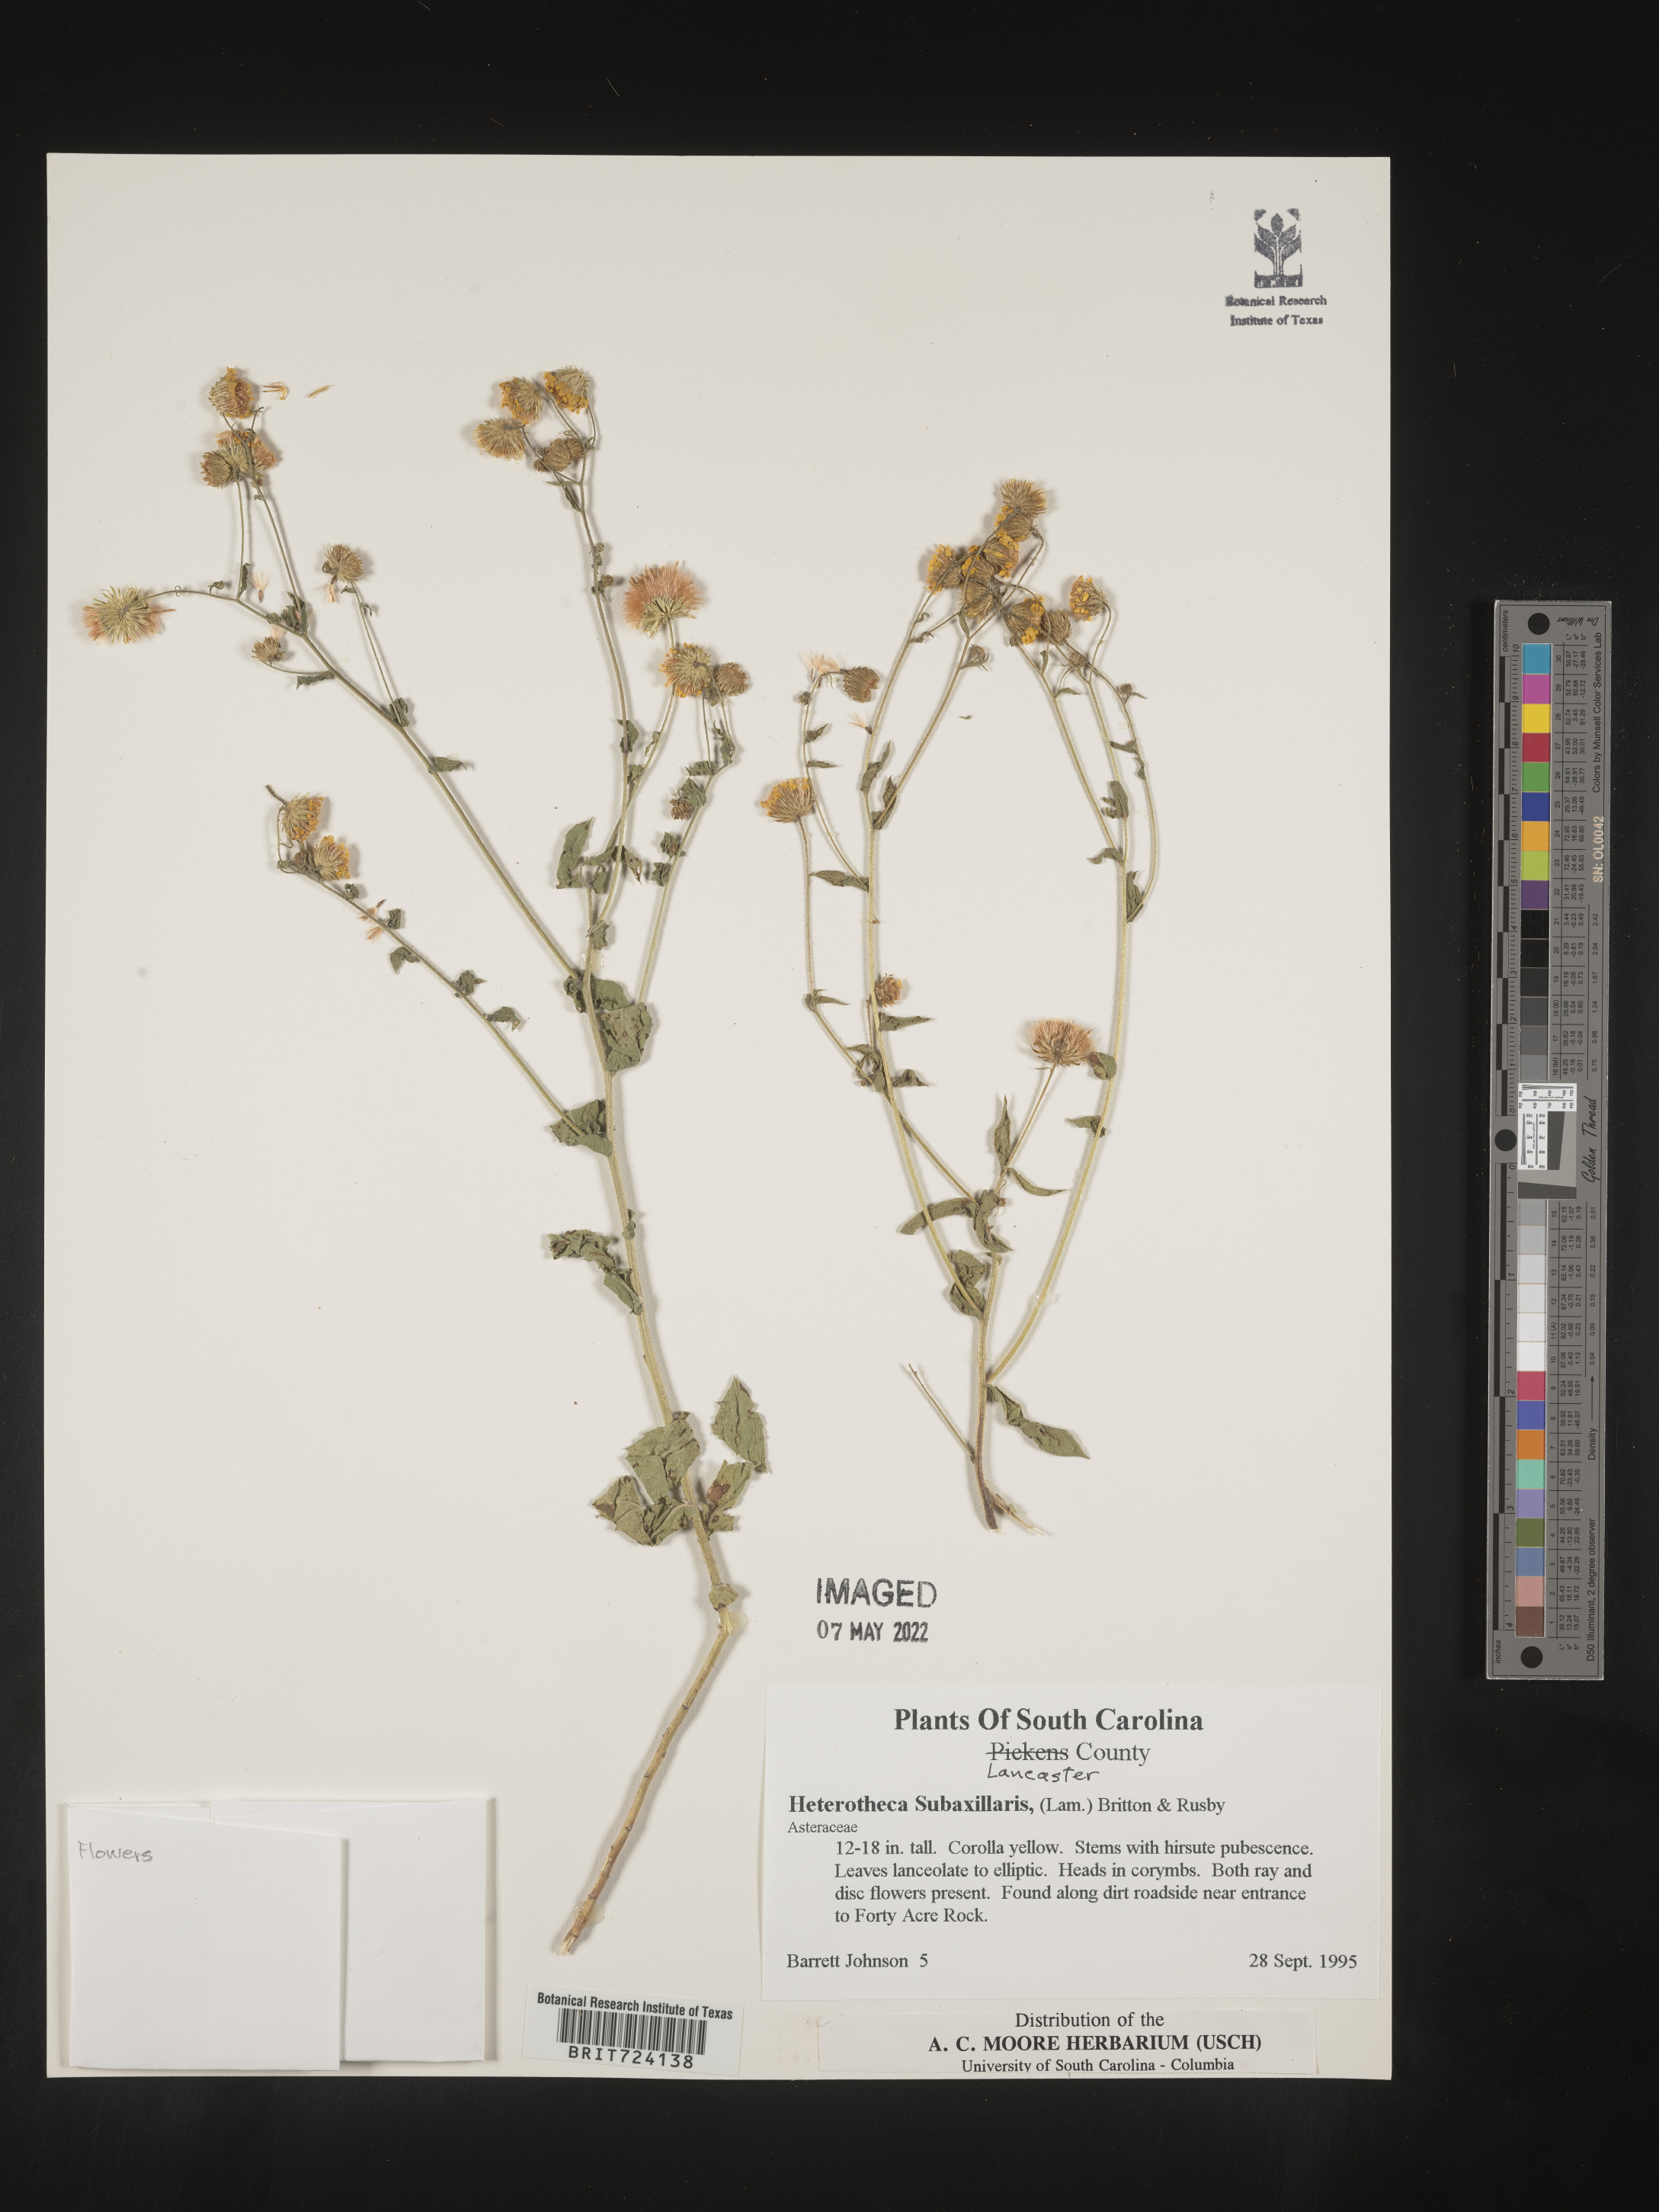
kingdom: Plantae
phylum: Tracheophyta
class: Magnoliopsida
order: Asterales
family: Asteraceae
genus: Heterotheca
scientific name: Heterotheca subaxillaris
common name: Camphorweed
